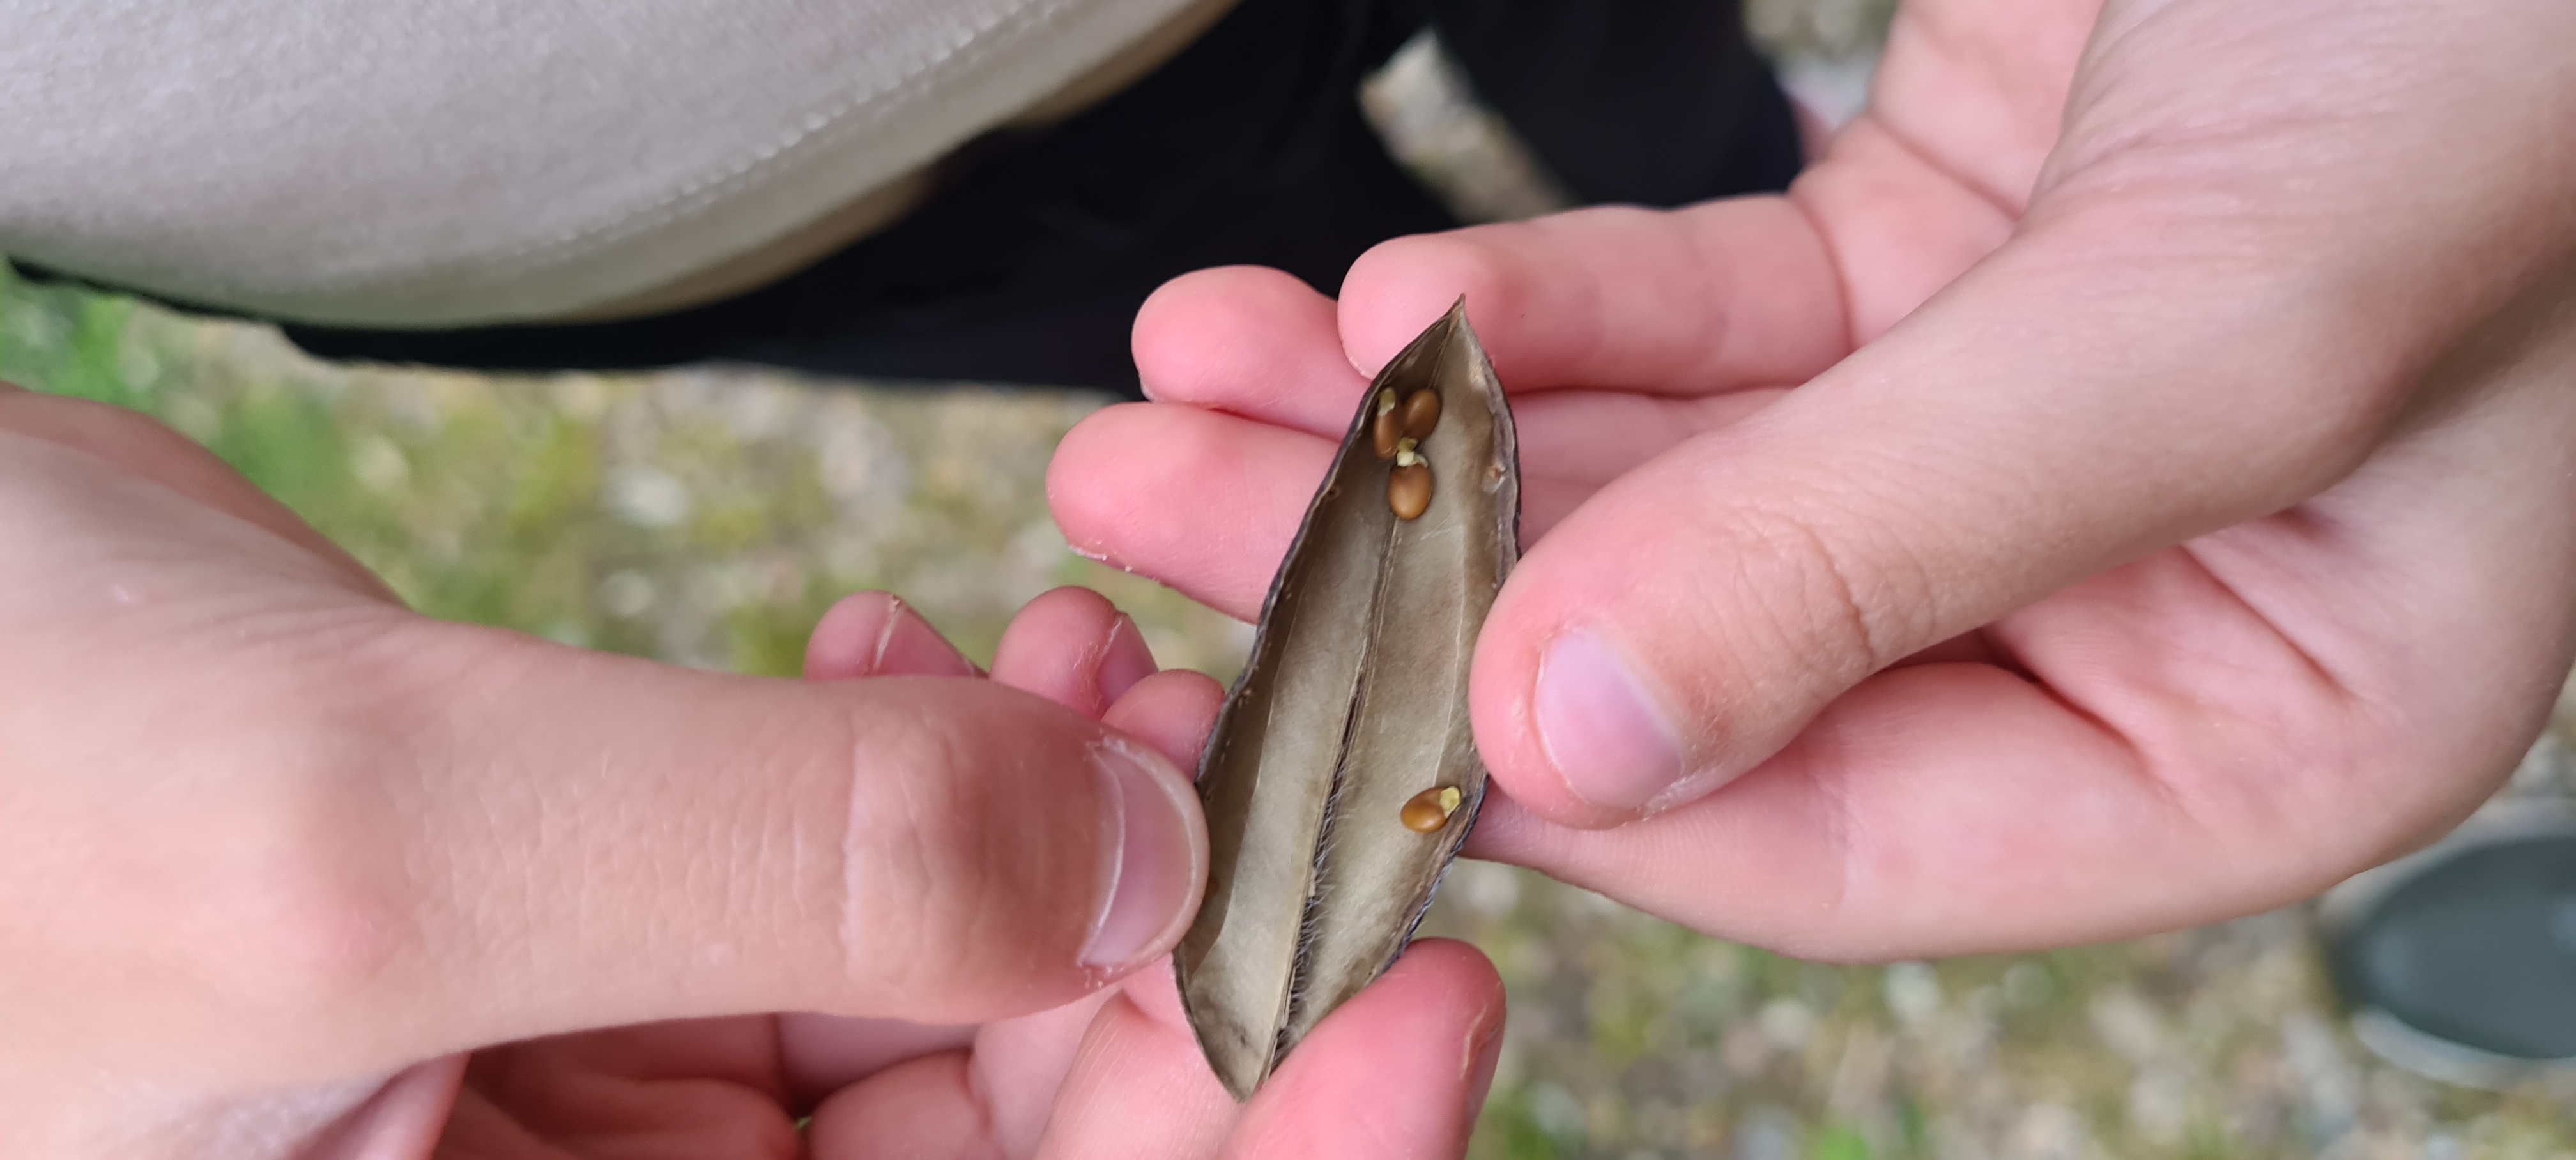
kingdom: Plantae
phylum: Tracheophyta
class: Magnoliopsida
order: Fabales
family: Fabaceae
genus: Cytisus
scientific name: Cytisus scoparius
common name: Almindelig gyvel
